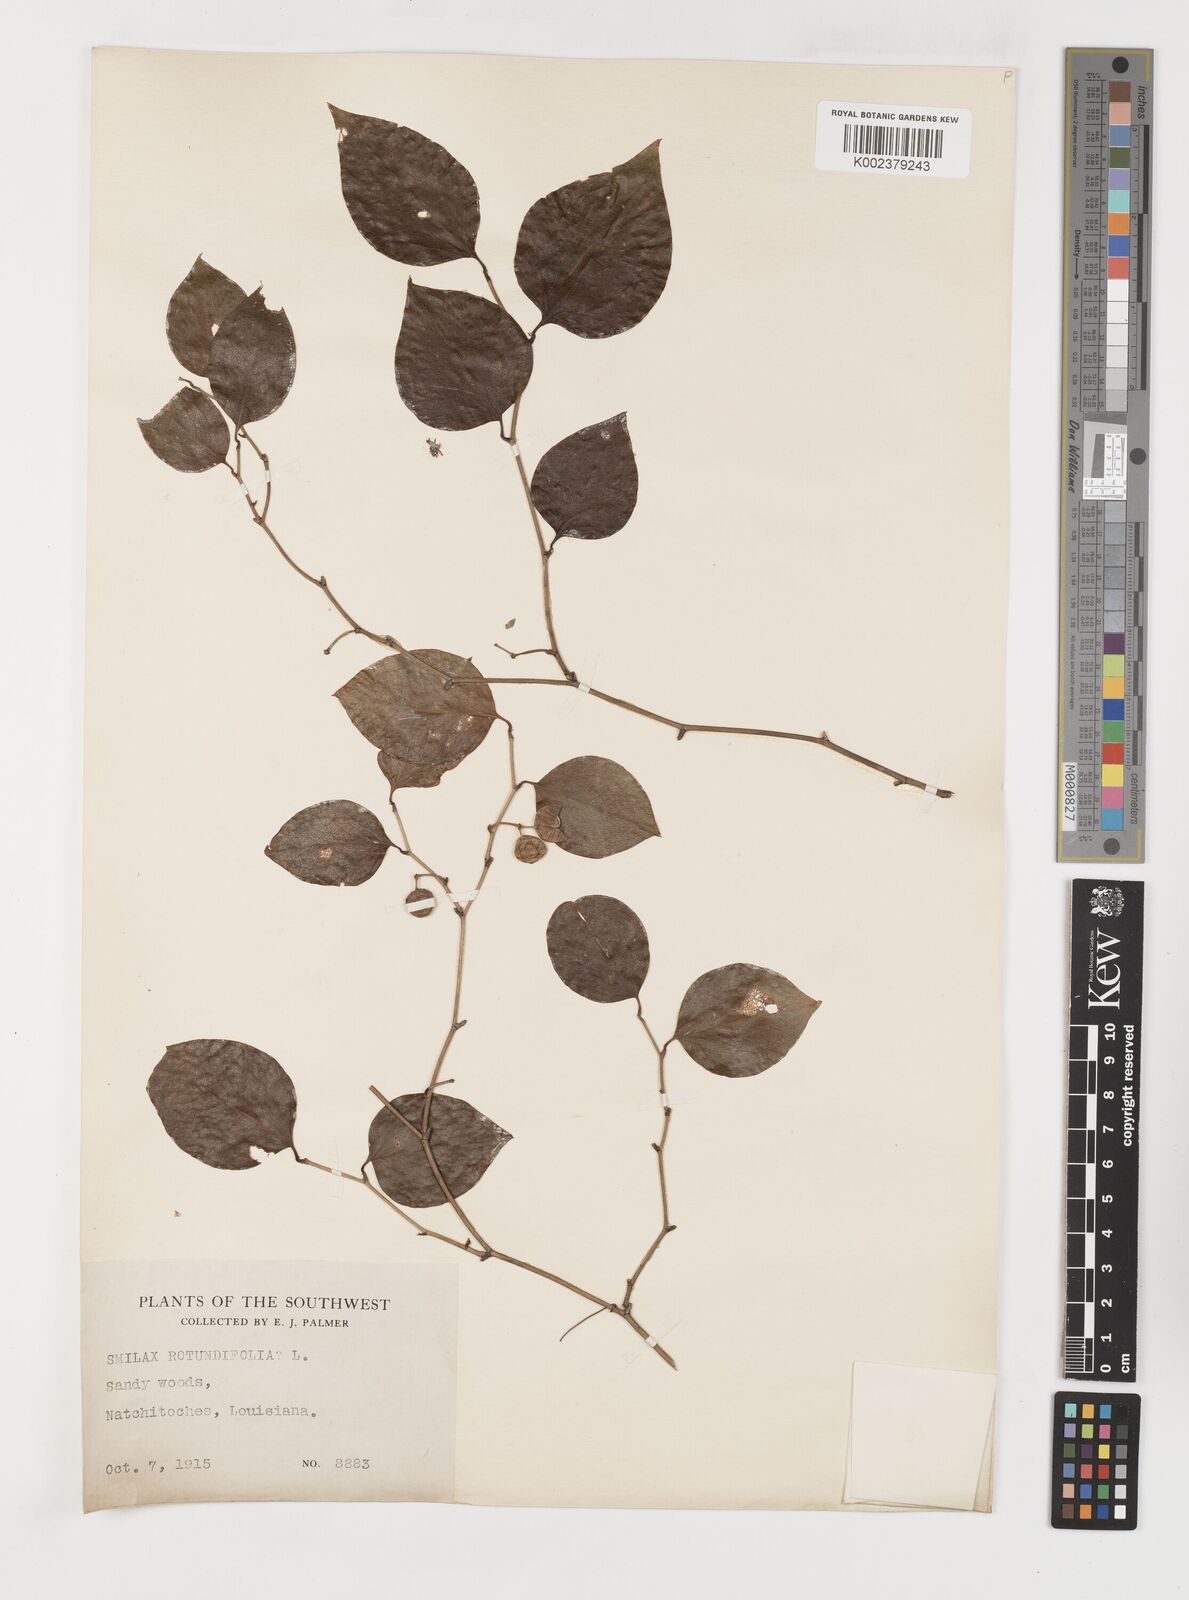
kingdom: Plantae
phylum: Tracheophyta
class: Liliopsida
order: Liliales
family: Smilacaceae
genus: Smilax
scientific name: Smilax rotundifolia
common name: Bullbriar
